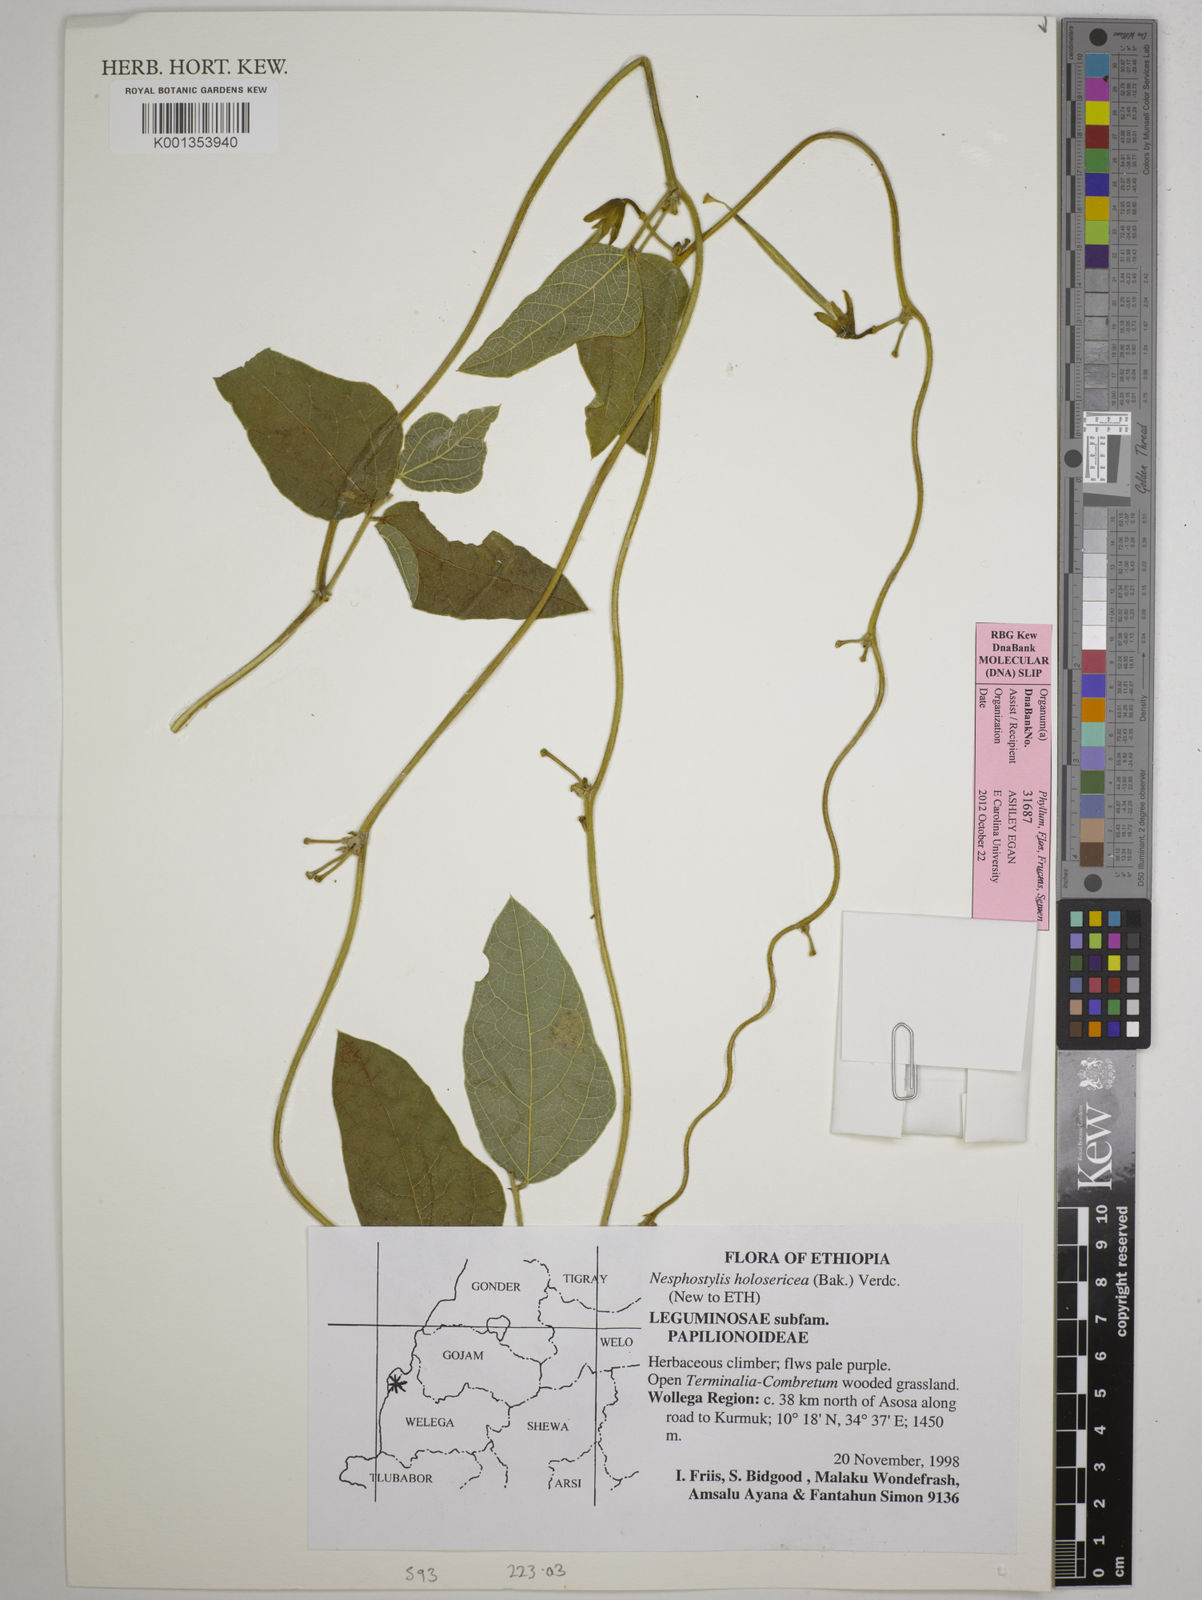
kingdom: Plantae
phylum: Tracheophyta
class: Magnoliopsida
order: Fabales
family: Fabaceae
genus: Nesphostylis
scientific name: Nesphostylis holosericea
